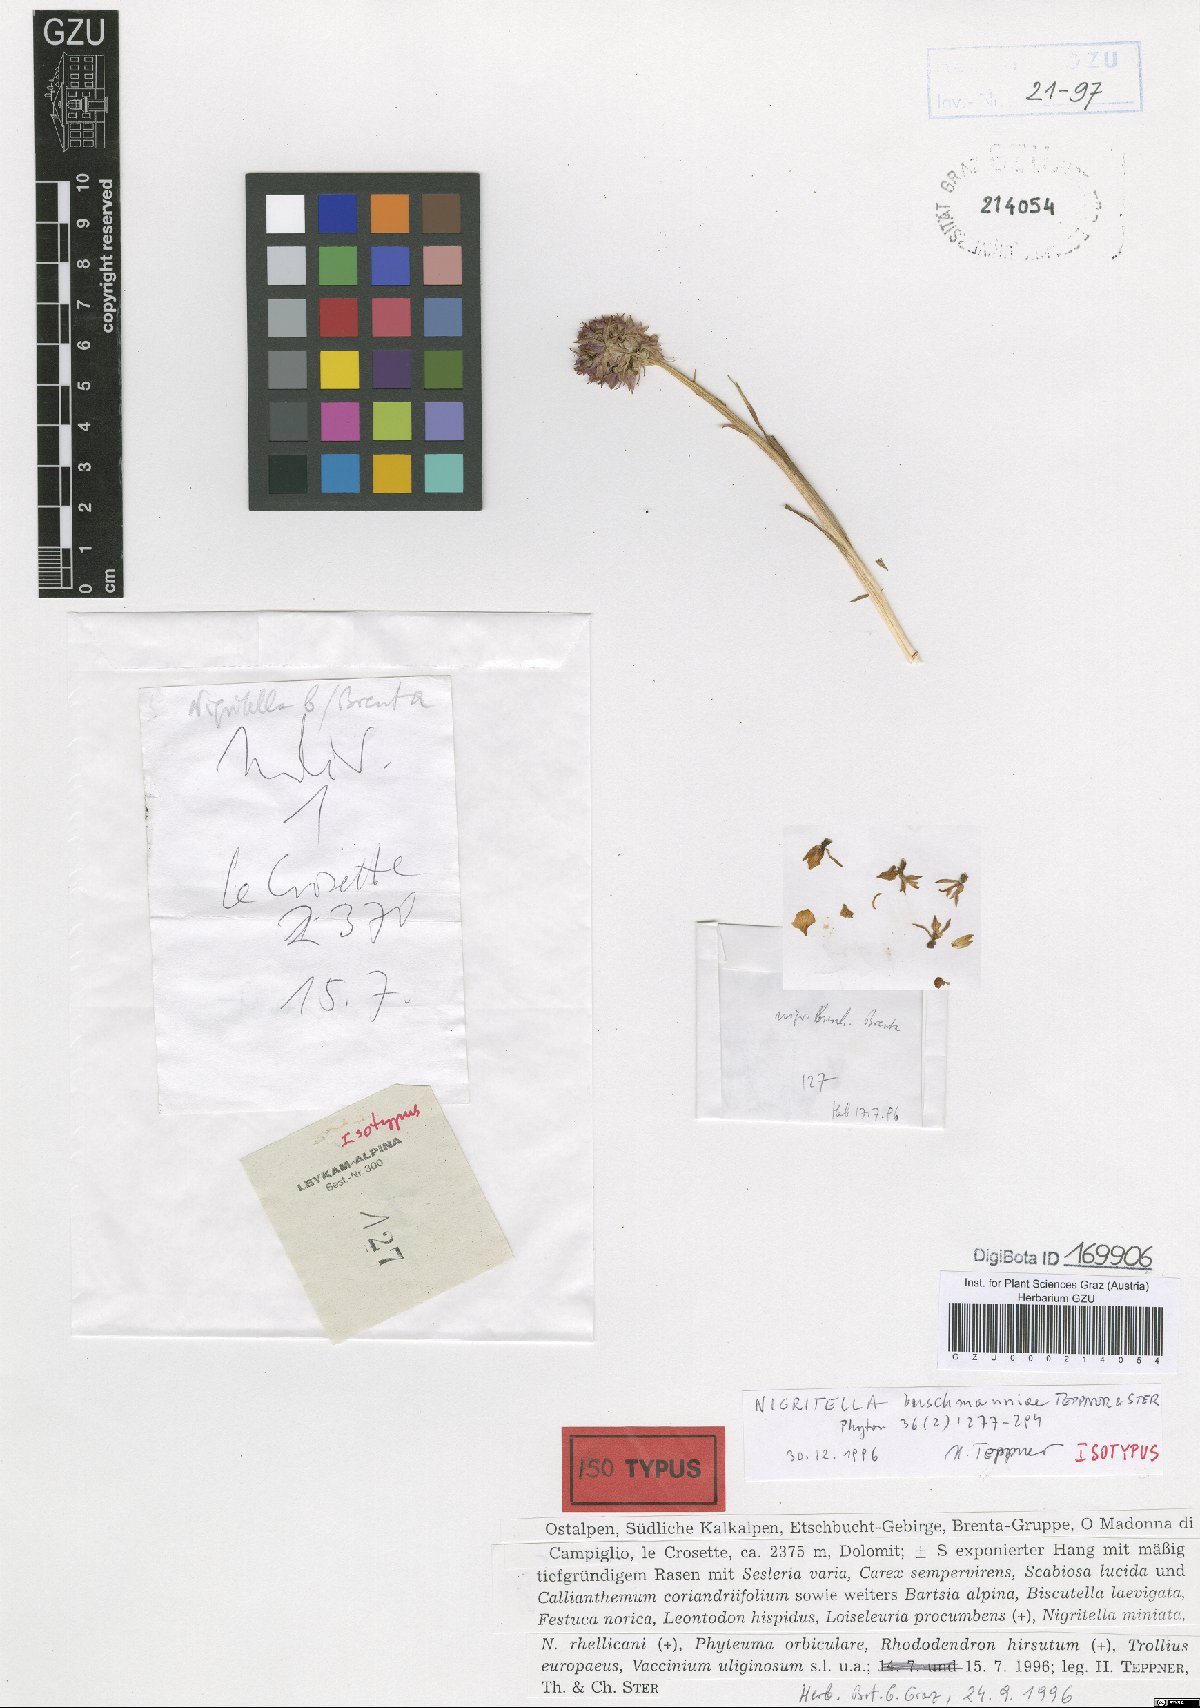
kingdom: Plantae
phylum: Tracheophyta
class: Liliopsida
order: Asparagales
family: Orchidaceae
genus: Gymnadenia
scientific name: Gymnadenia buschmanniae
